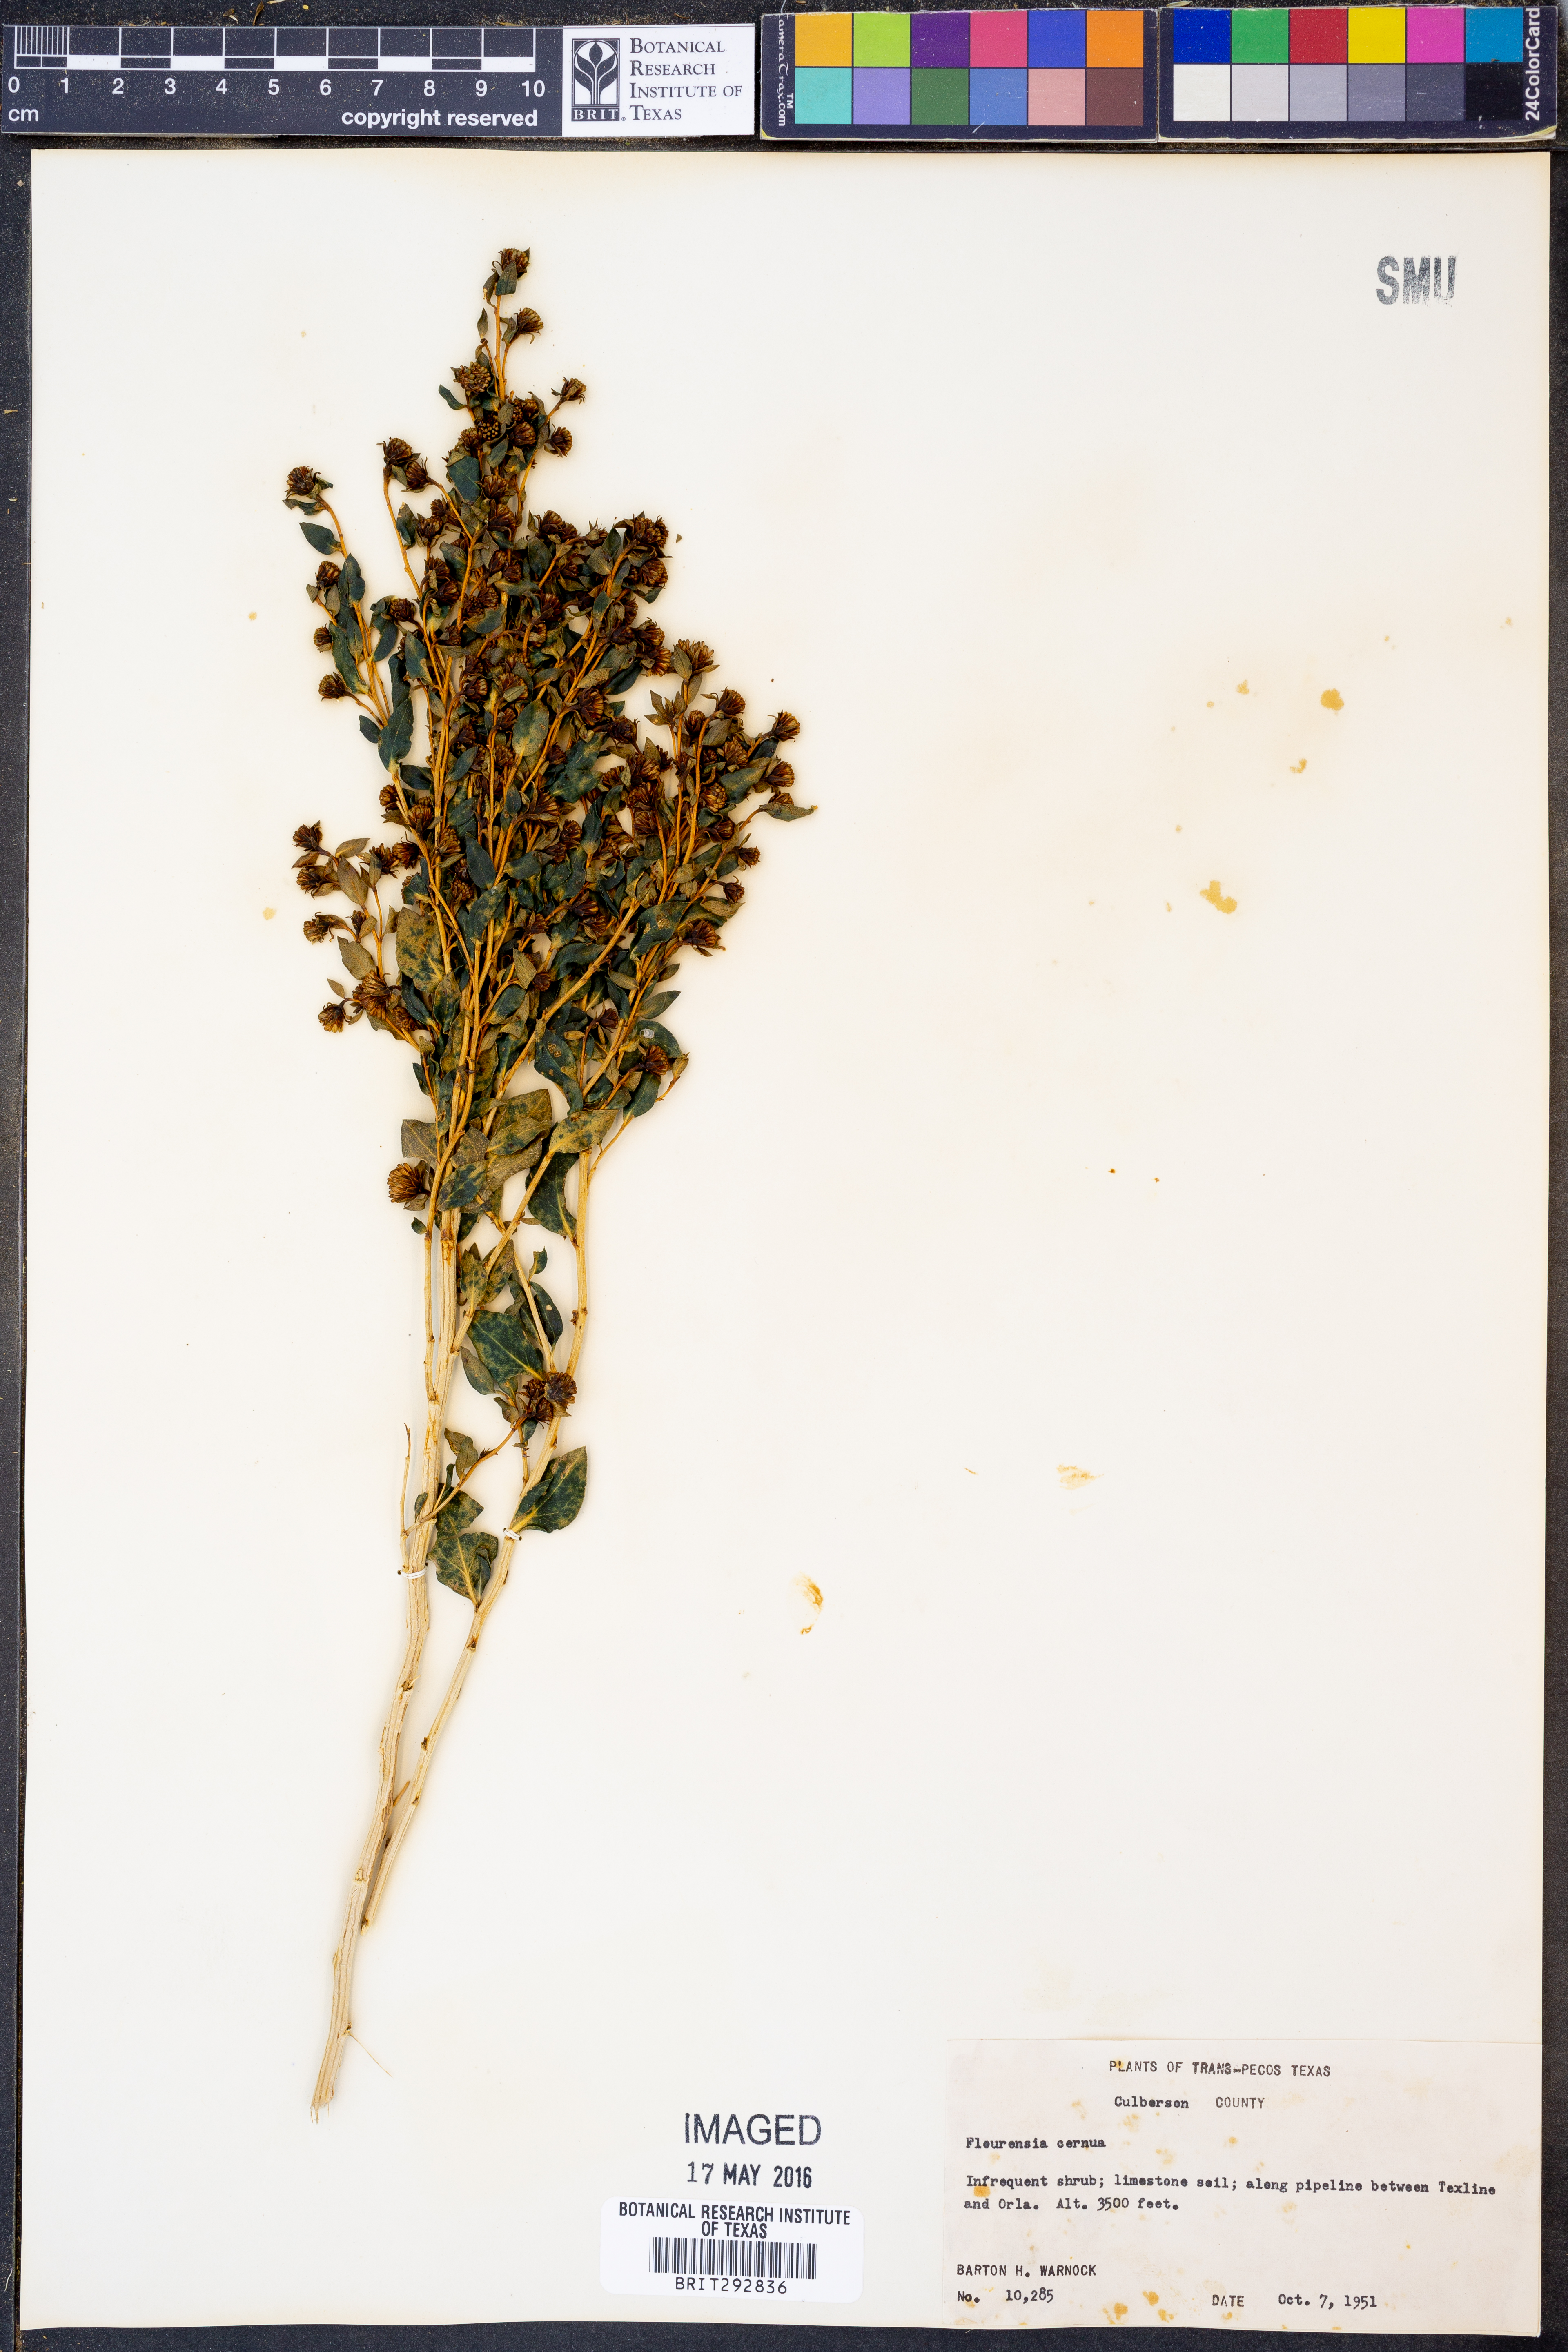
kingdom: Plantae
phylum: Tracheophyta
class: Magnoliopsida
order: Asterales
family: Asteraceae
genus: Flourensia
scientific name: Flourensia cernua
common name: Varnishbush
